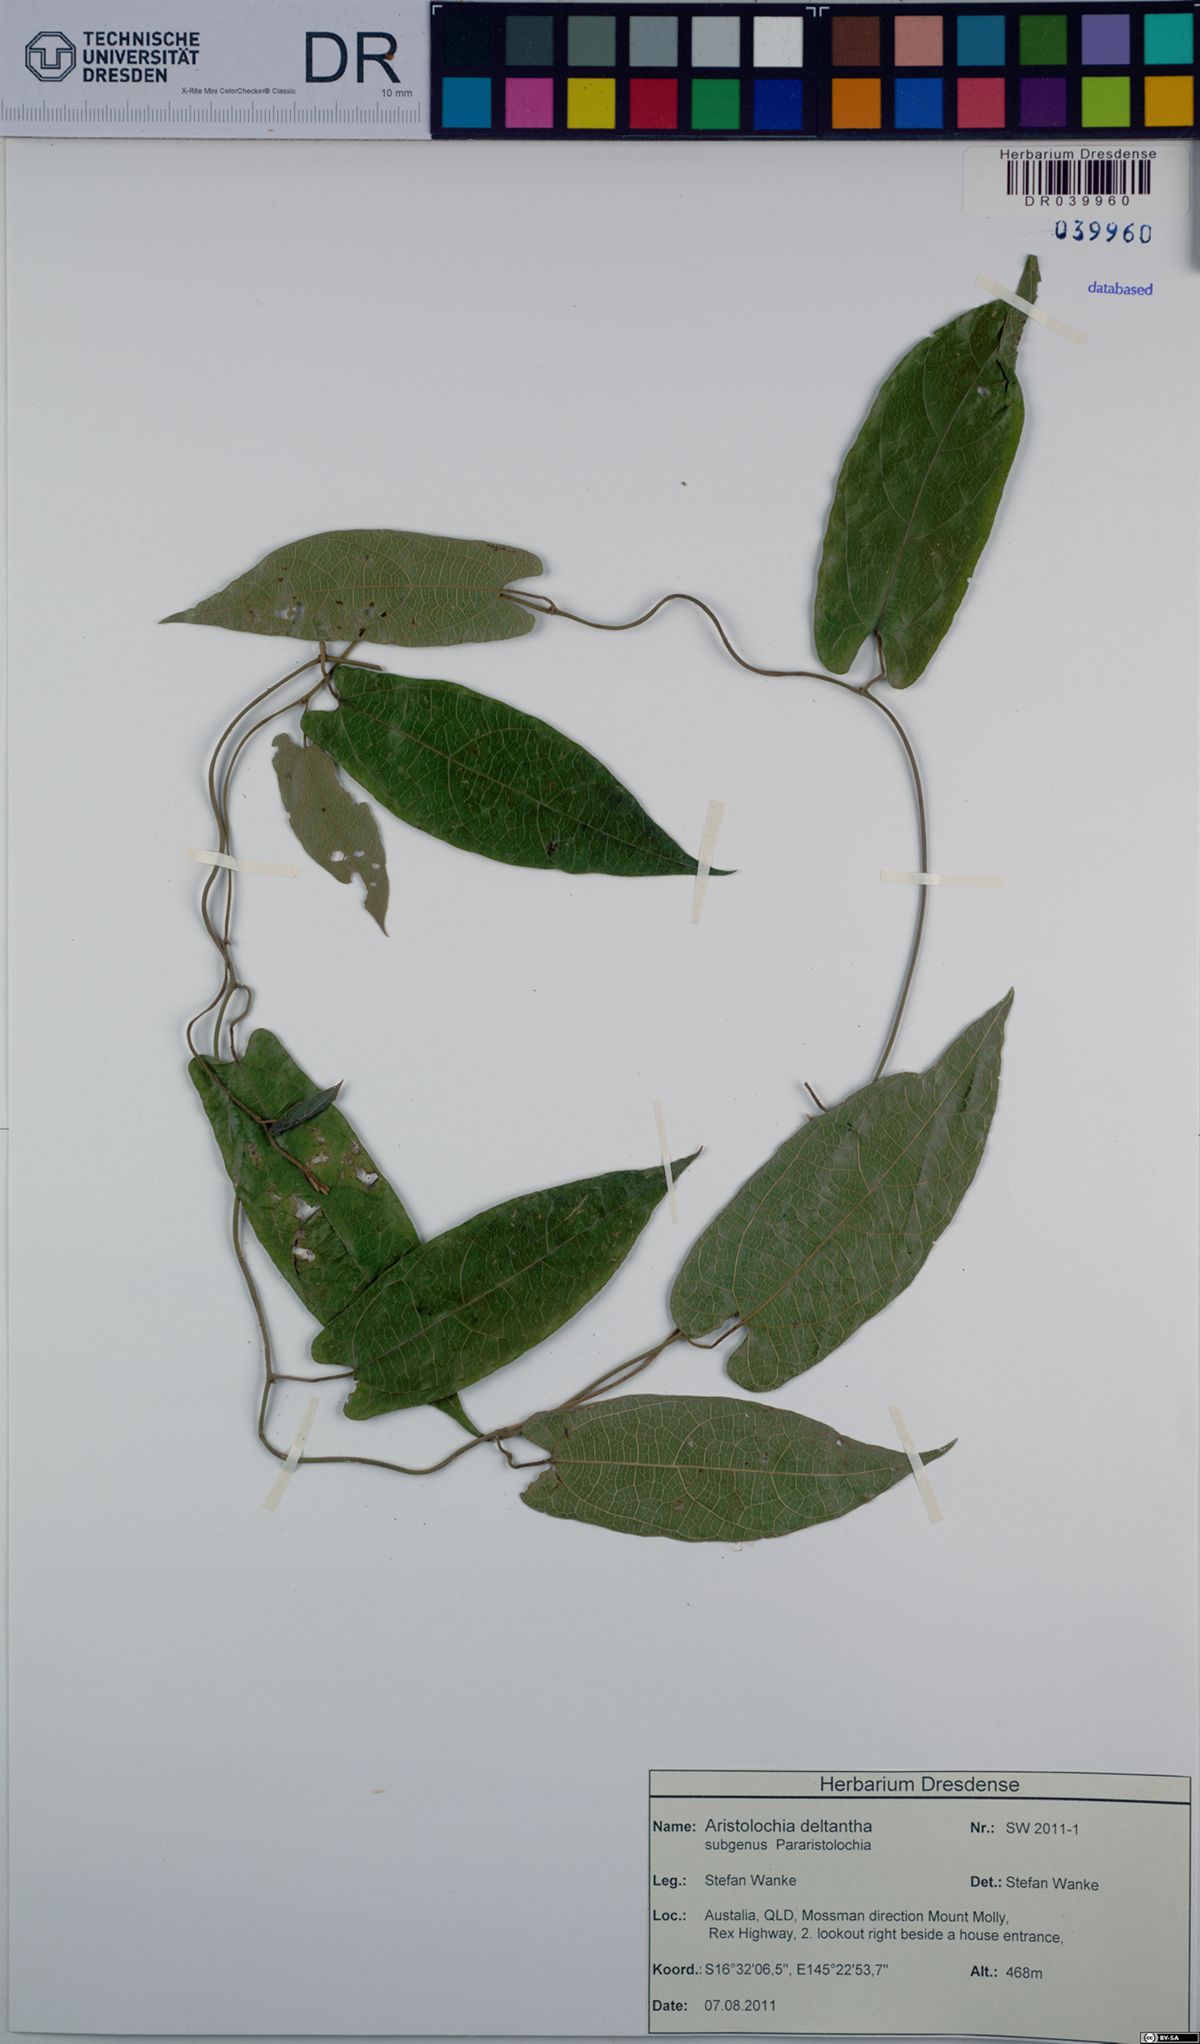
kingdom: Plantae
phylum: Tracheophyta
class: Magnoliopsida
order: Piperales
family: Aristolochiaceae
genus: Aristolochia
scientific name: Aristolochia deltantha
